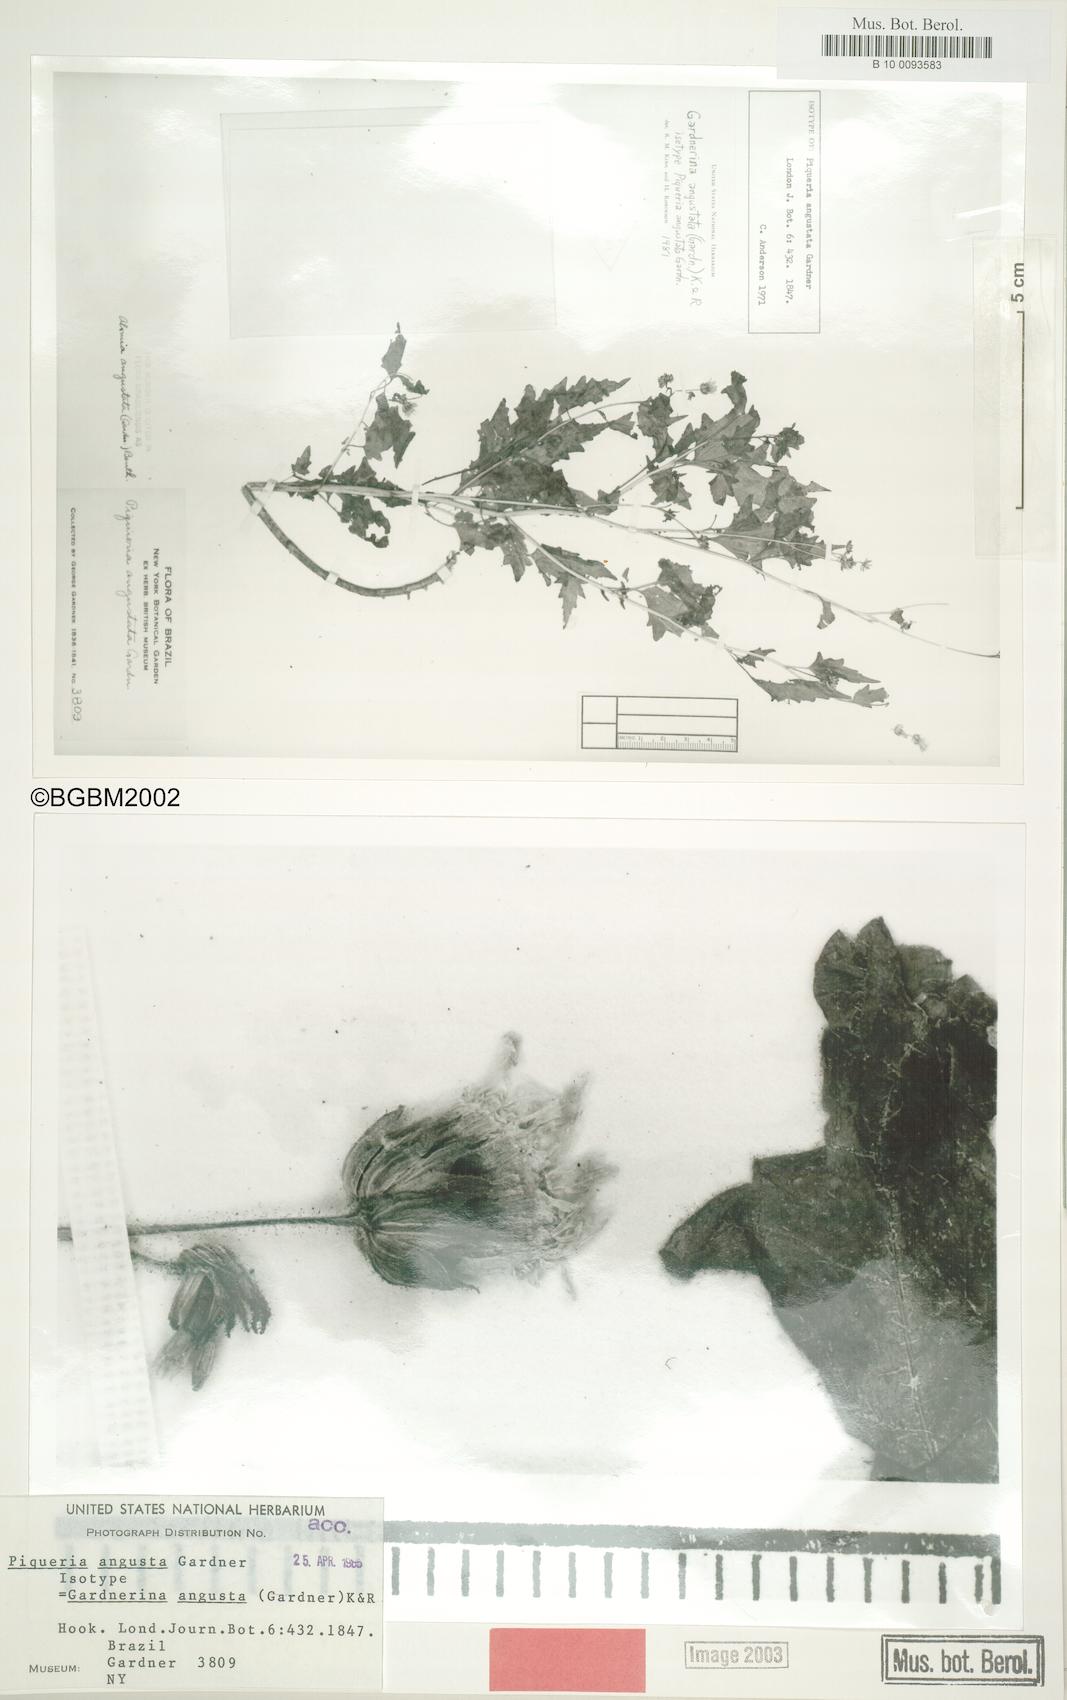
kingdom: Plantae
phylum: Tracheophyta
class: Magnoliopsida
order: Asterales
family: Asteraceae
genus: Gardnerina
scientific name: Gardnerina angustata
